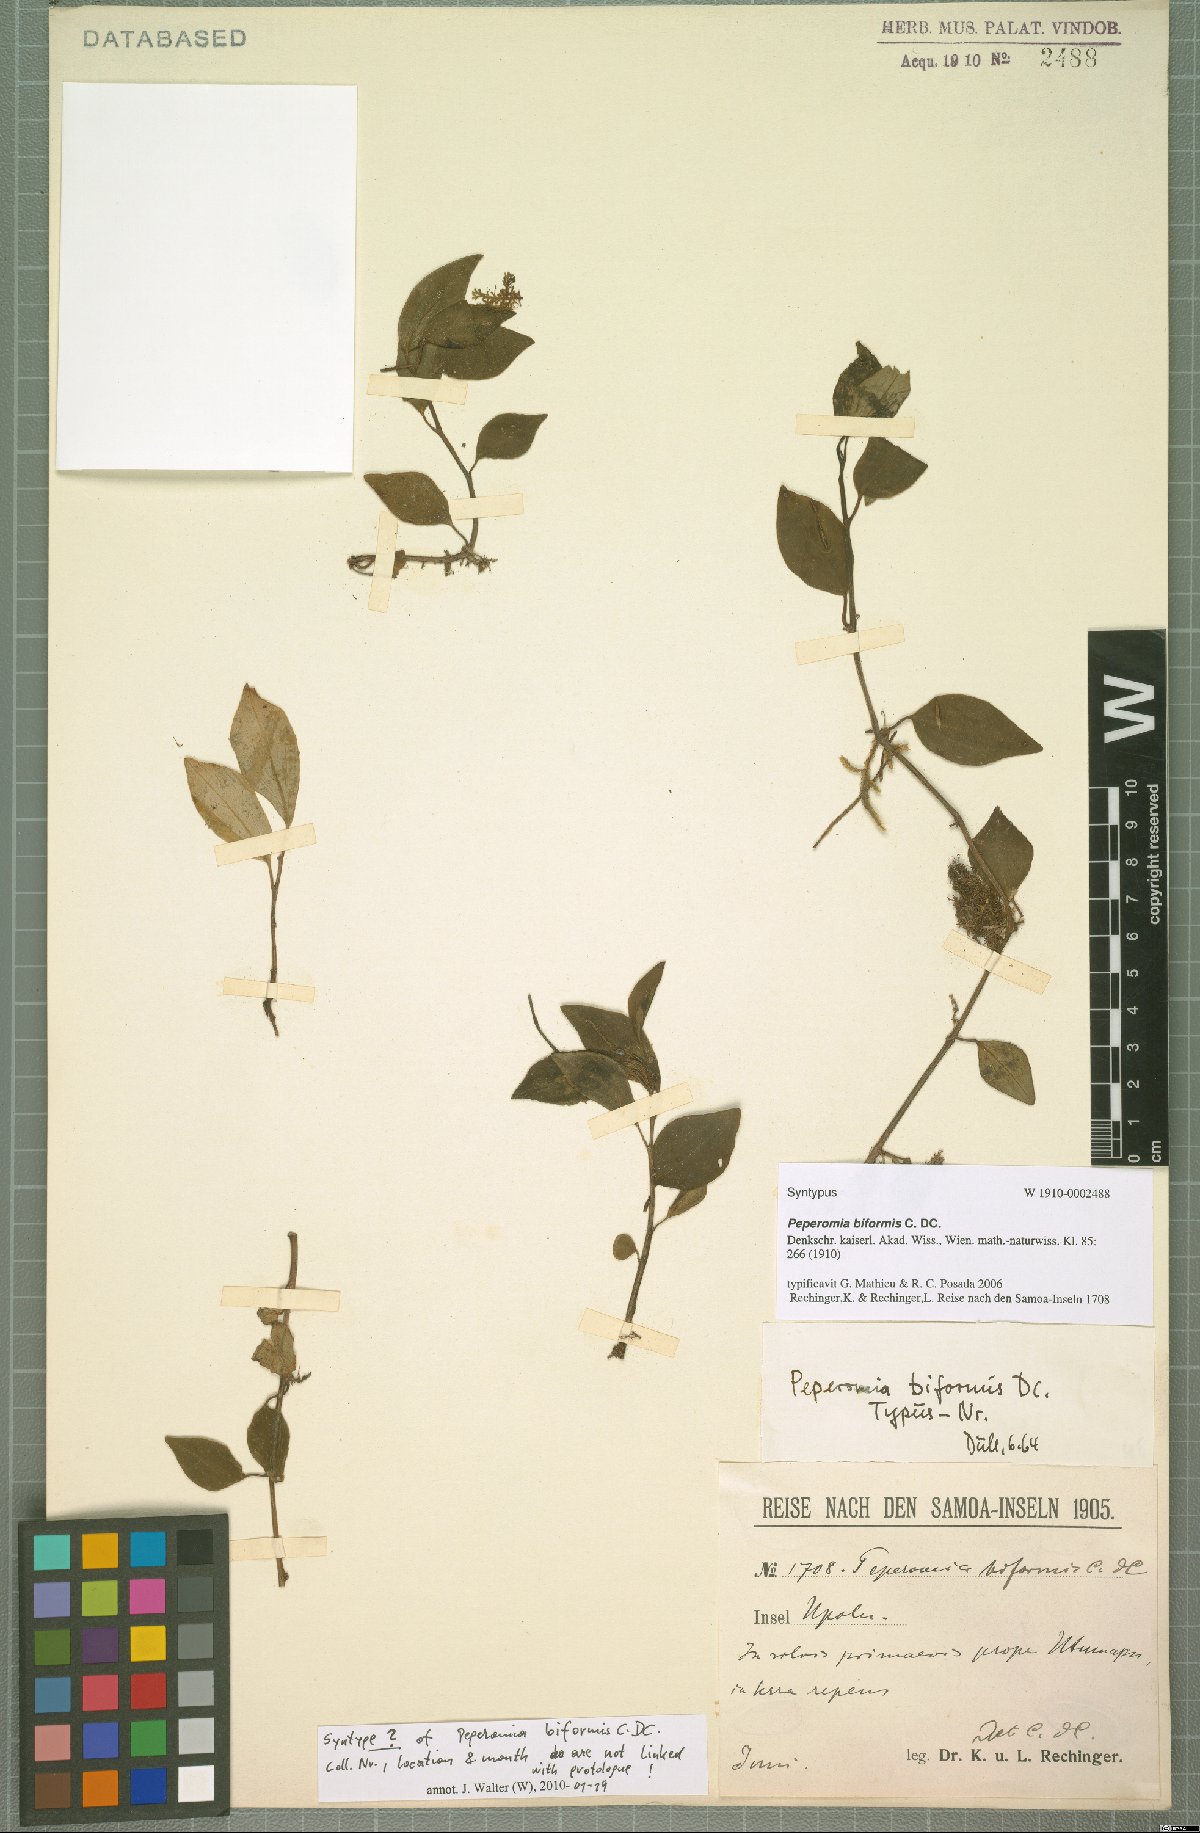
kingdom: Plantae
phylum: Tracheophyta
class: Magnoliopsida
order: Piperales
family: Piperaceae
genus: Peperomia
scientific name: Peperomia biformis
